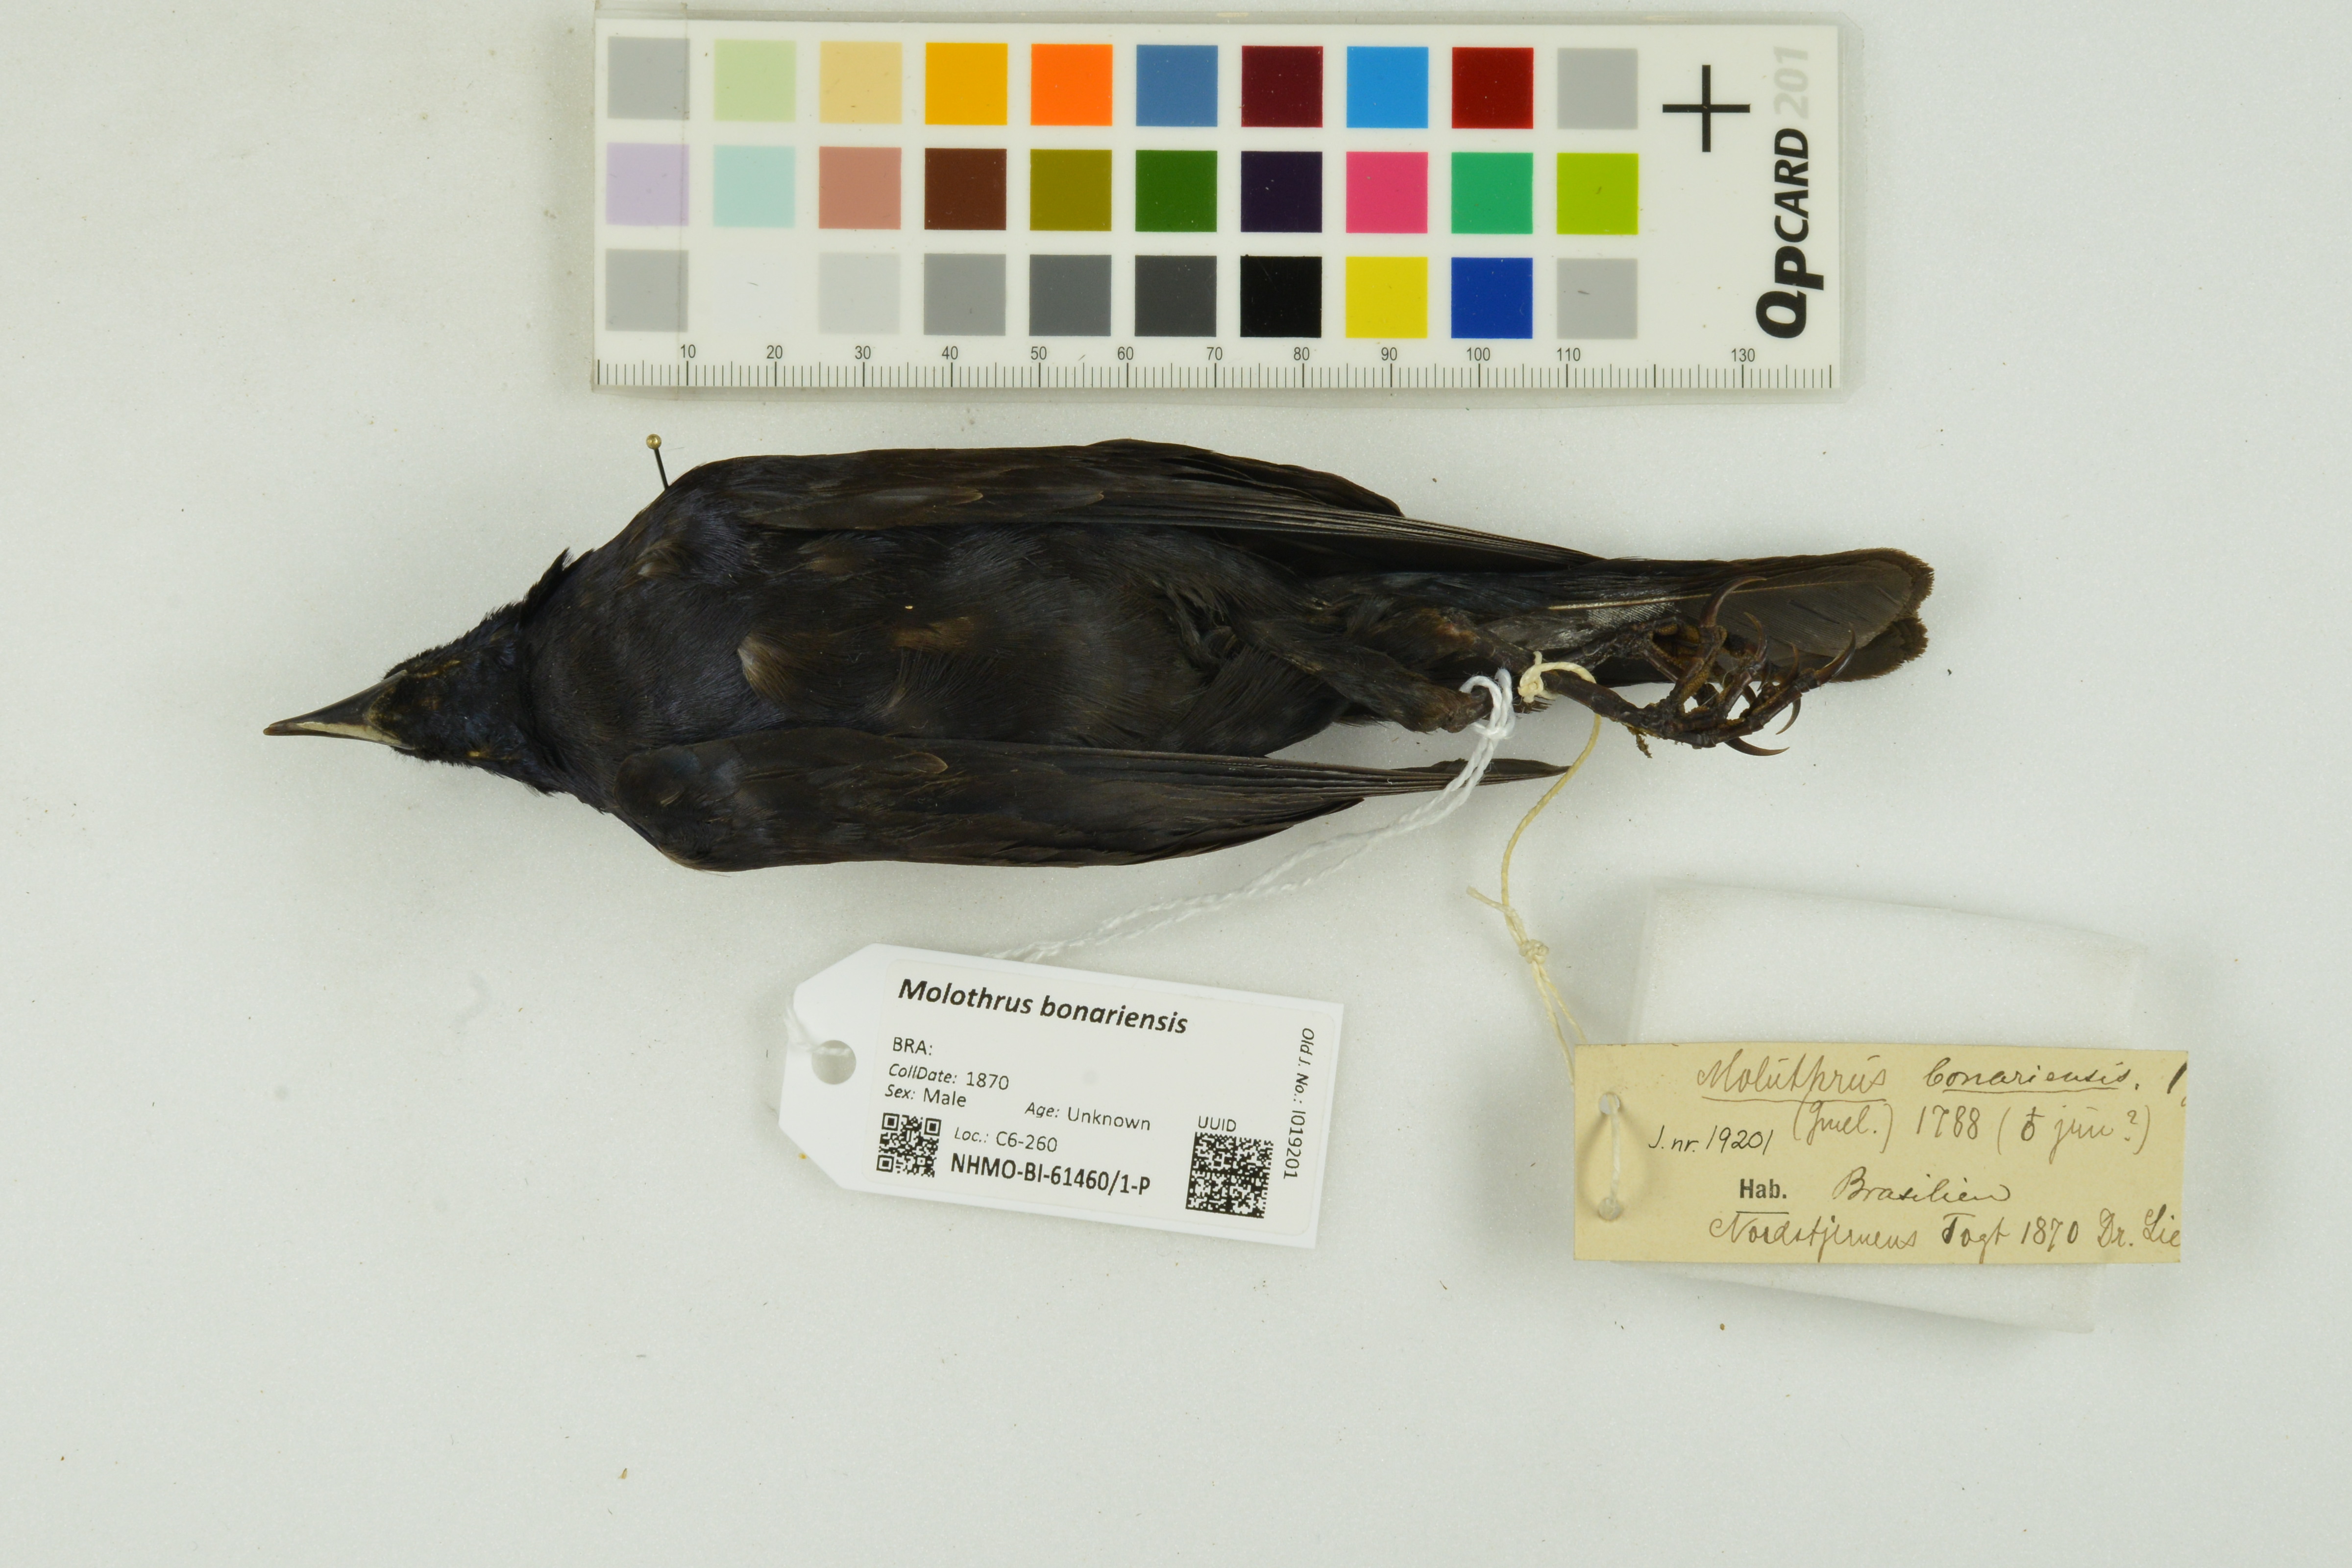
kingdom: Animalia
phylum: Chordata
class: Aves
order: Passeriformes
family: Icteridae
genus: Molothrus
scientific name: Molothrus bonariensis
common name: Shiny cowbird
